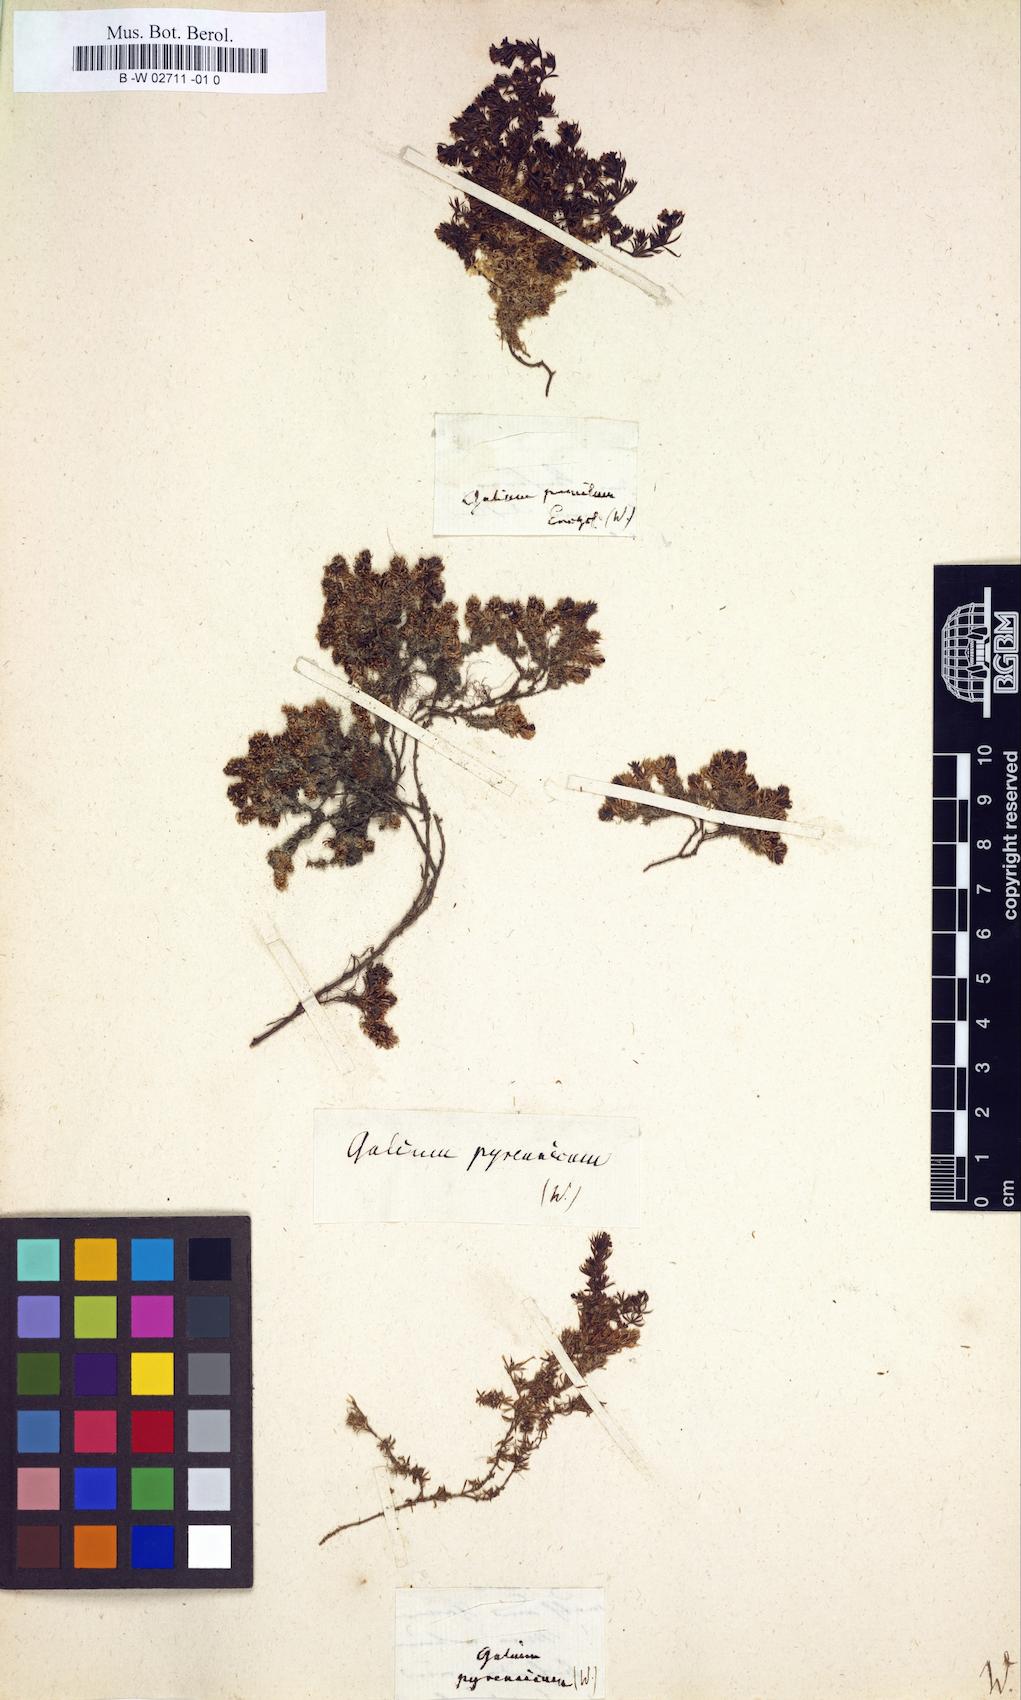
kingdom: Plantae
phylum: Tracheophyta
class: Magnoliopsida
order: Gentianales
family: Rubiaceae
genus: Galium
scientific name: Galium pyrenaicum
